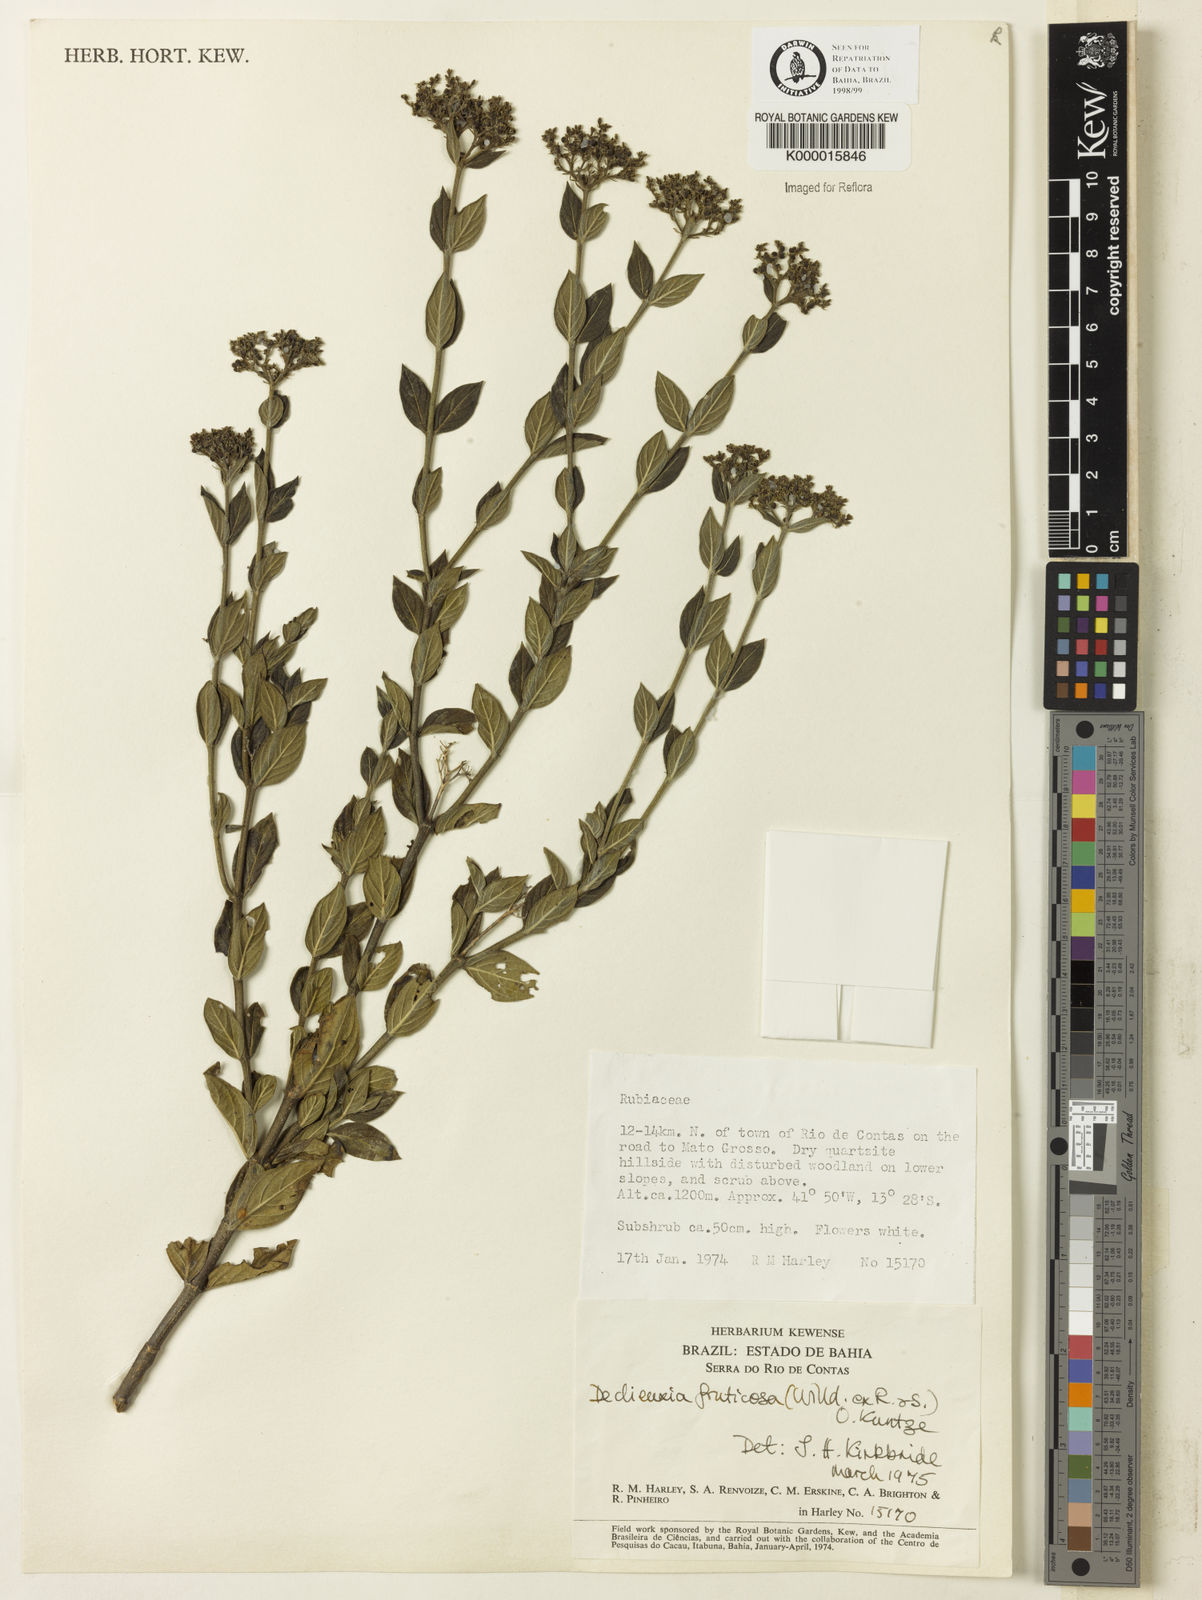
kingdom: Plantae
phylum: Tracheophyta
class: Magnoliopsida
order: Gentianales
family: Rubiaceae
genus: Declieuxia
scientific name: Declieuxia fruticosa
